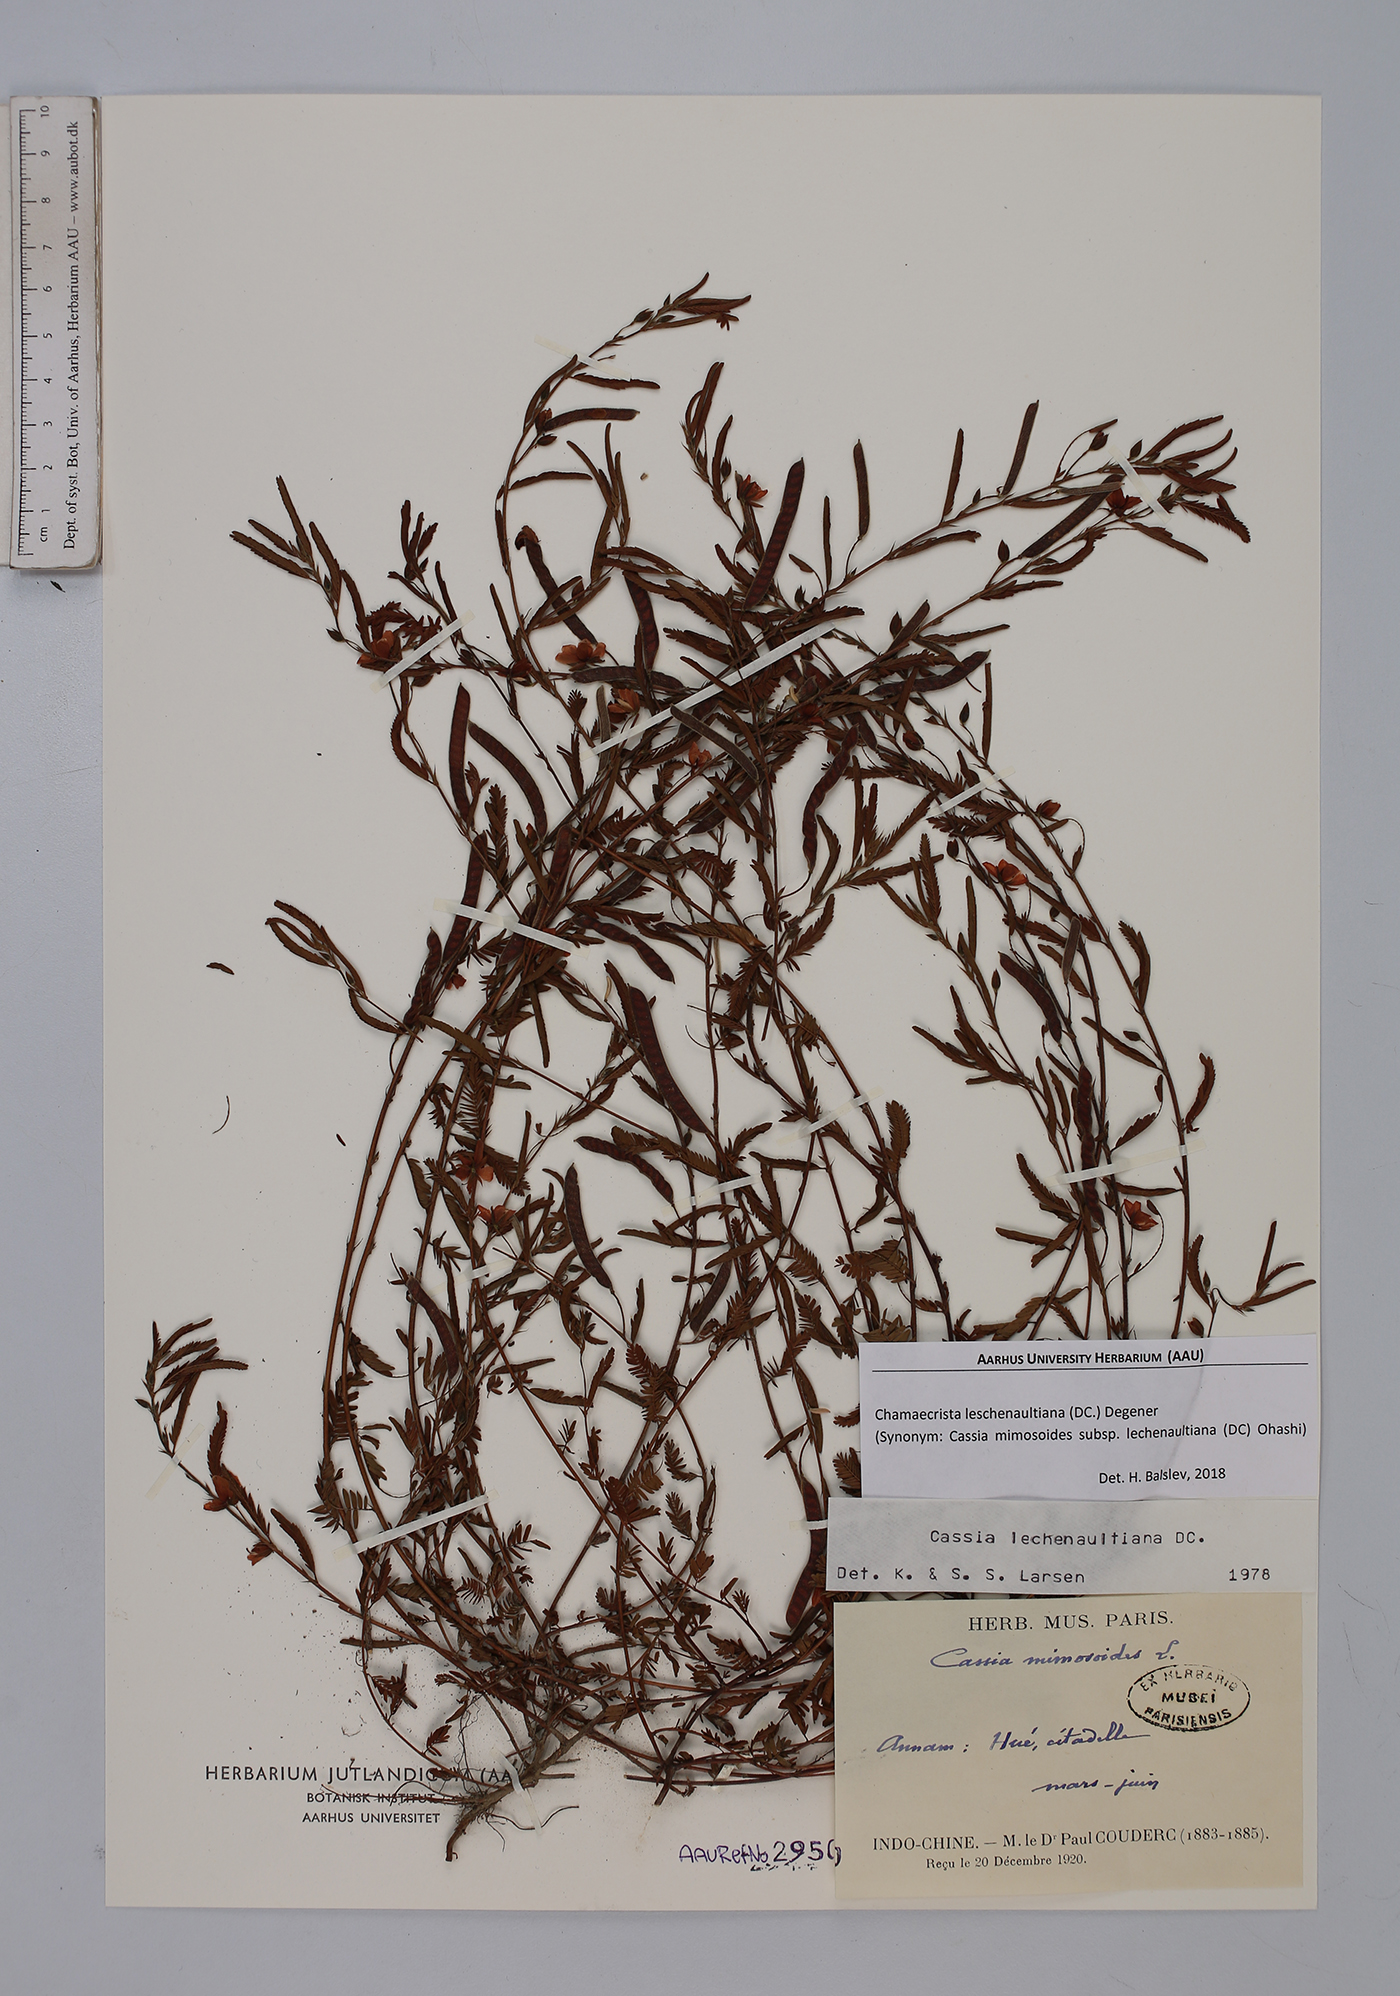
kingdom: Plantae
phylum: Tracheophyta
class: Magnoliopsida
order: Fabales
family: Fabaceae
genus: Chamaecrista
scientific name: Chamaecrista nictitans
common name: Sensitive cassia
